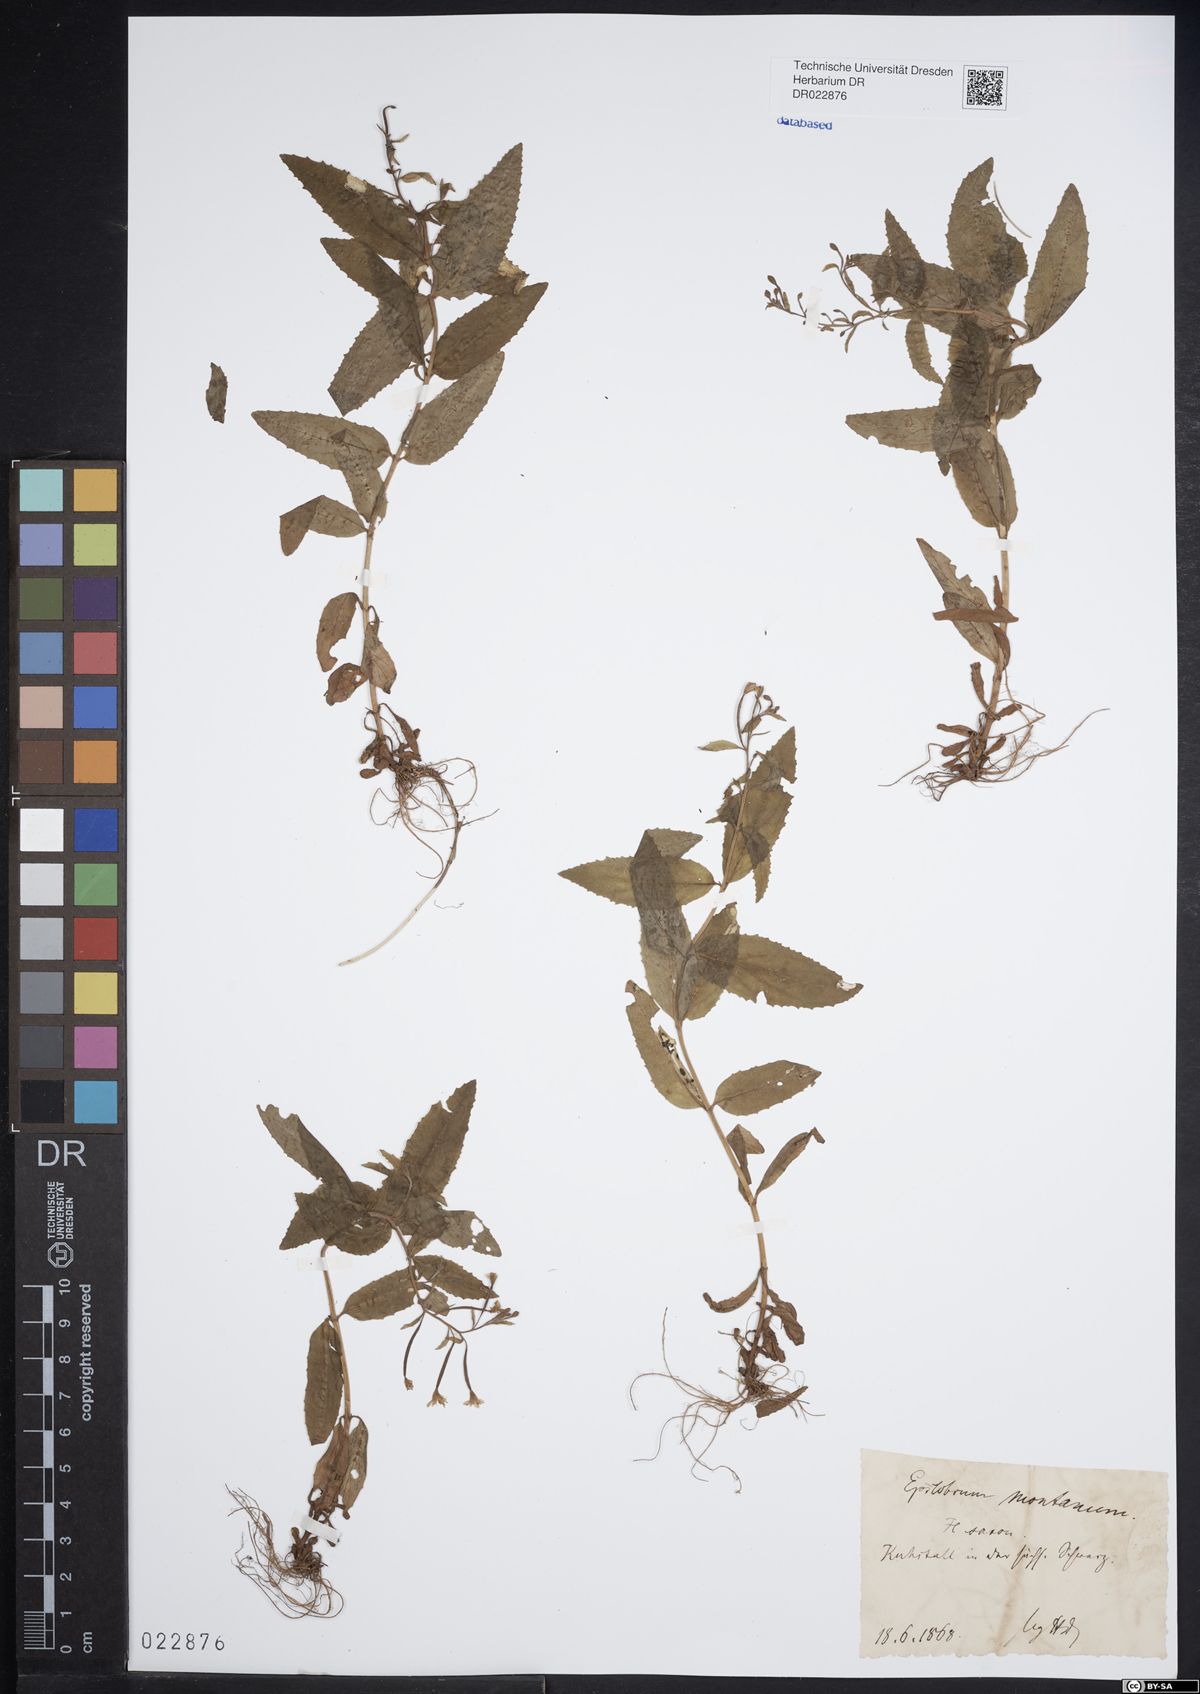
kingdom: Plantae
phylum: Tracheophyta
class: Magnoliopsida
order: Myrtales
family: Onagraceae
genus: Epilobium
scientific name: Epilobium montanum
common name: Broad-leaved willowherb
